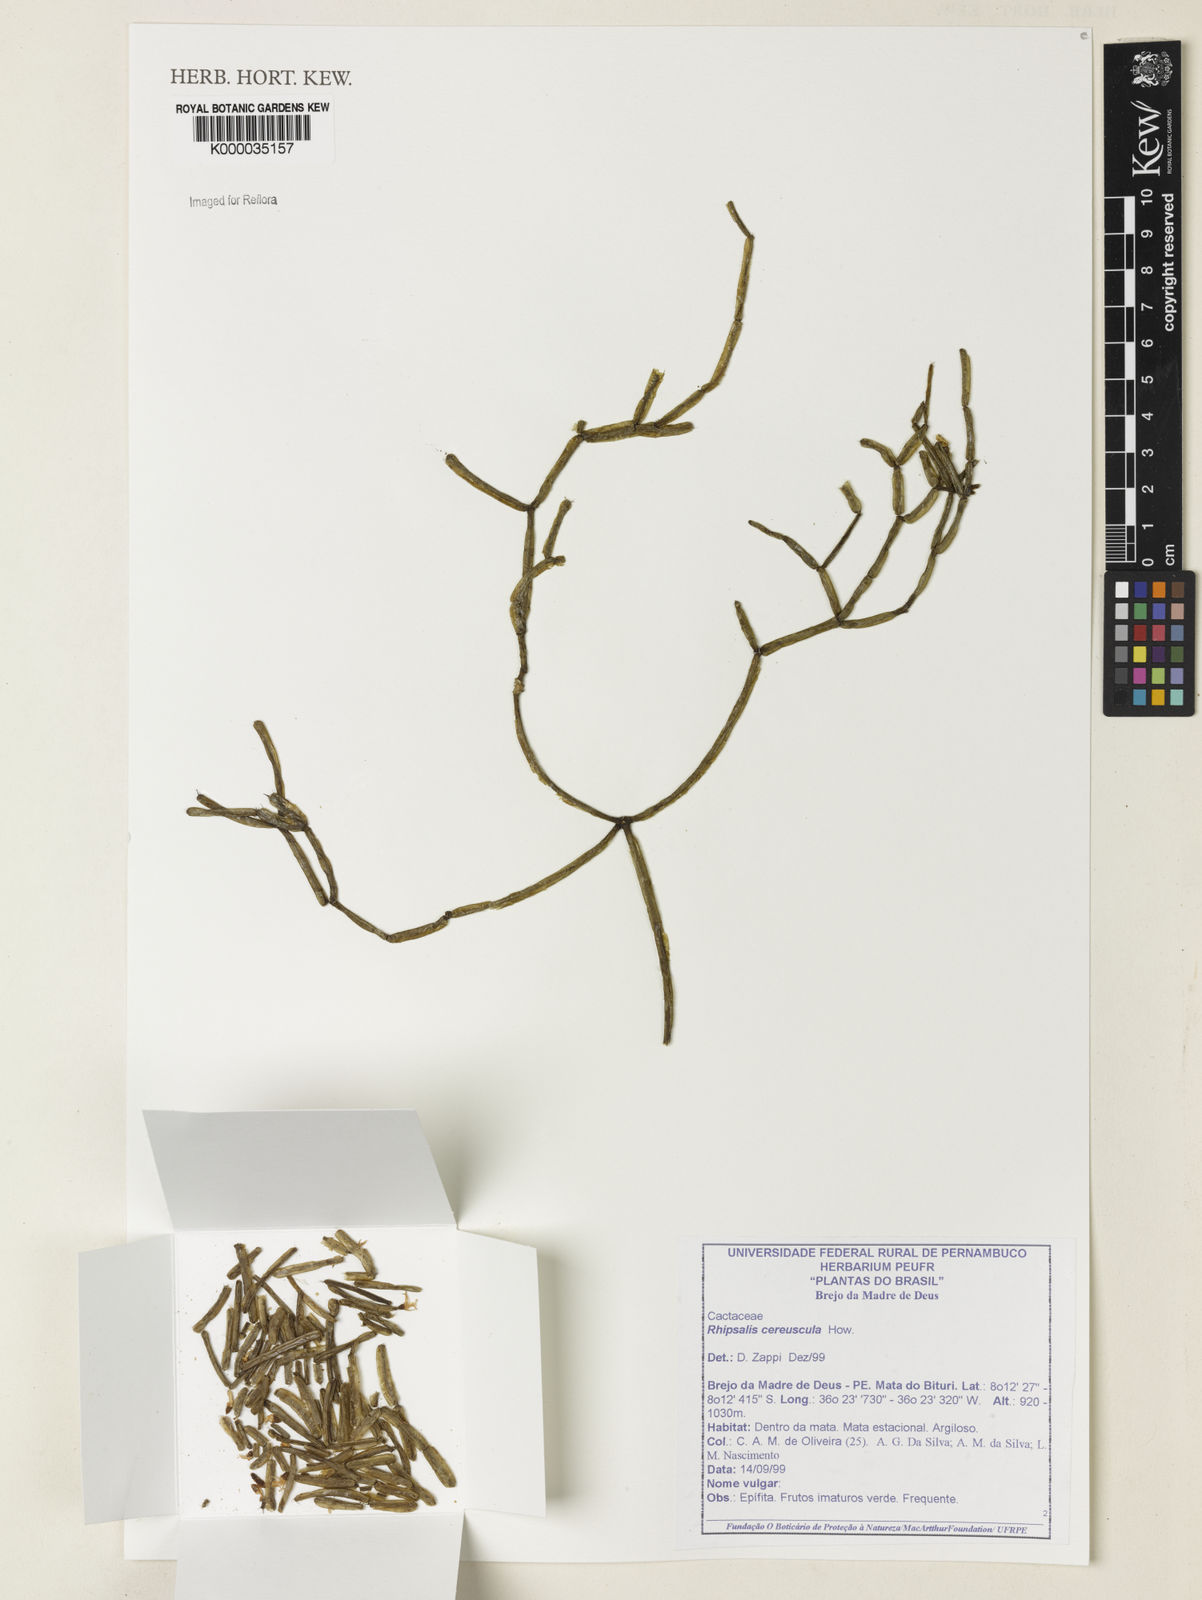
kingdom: Plantae
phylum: Tracheophyta
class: Magnoliopsida
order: Caryophyllales
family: Cactaceae
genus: Rhipsalis
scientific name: Rhipsalis
